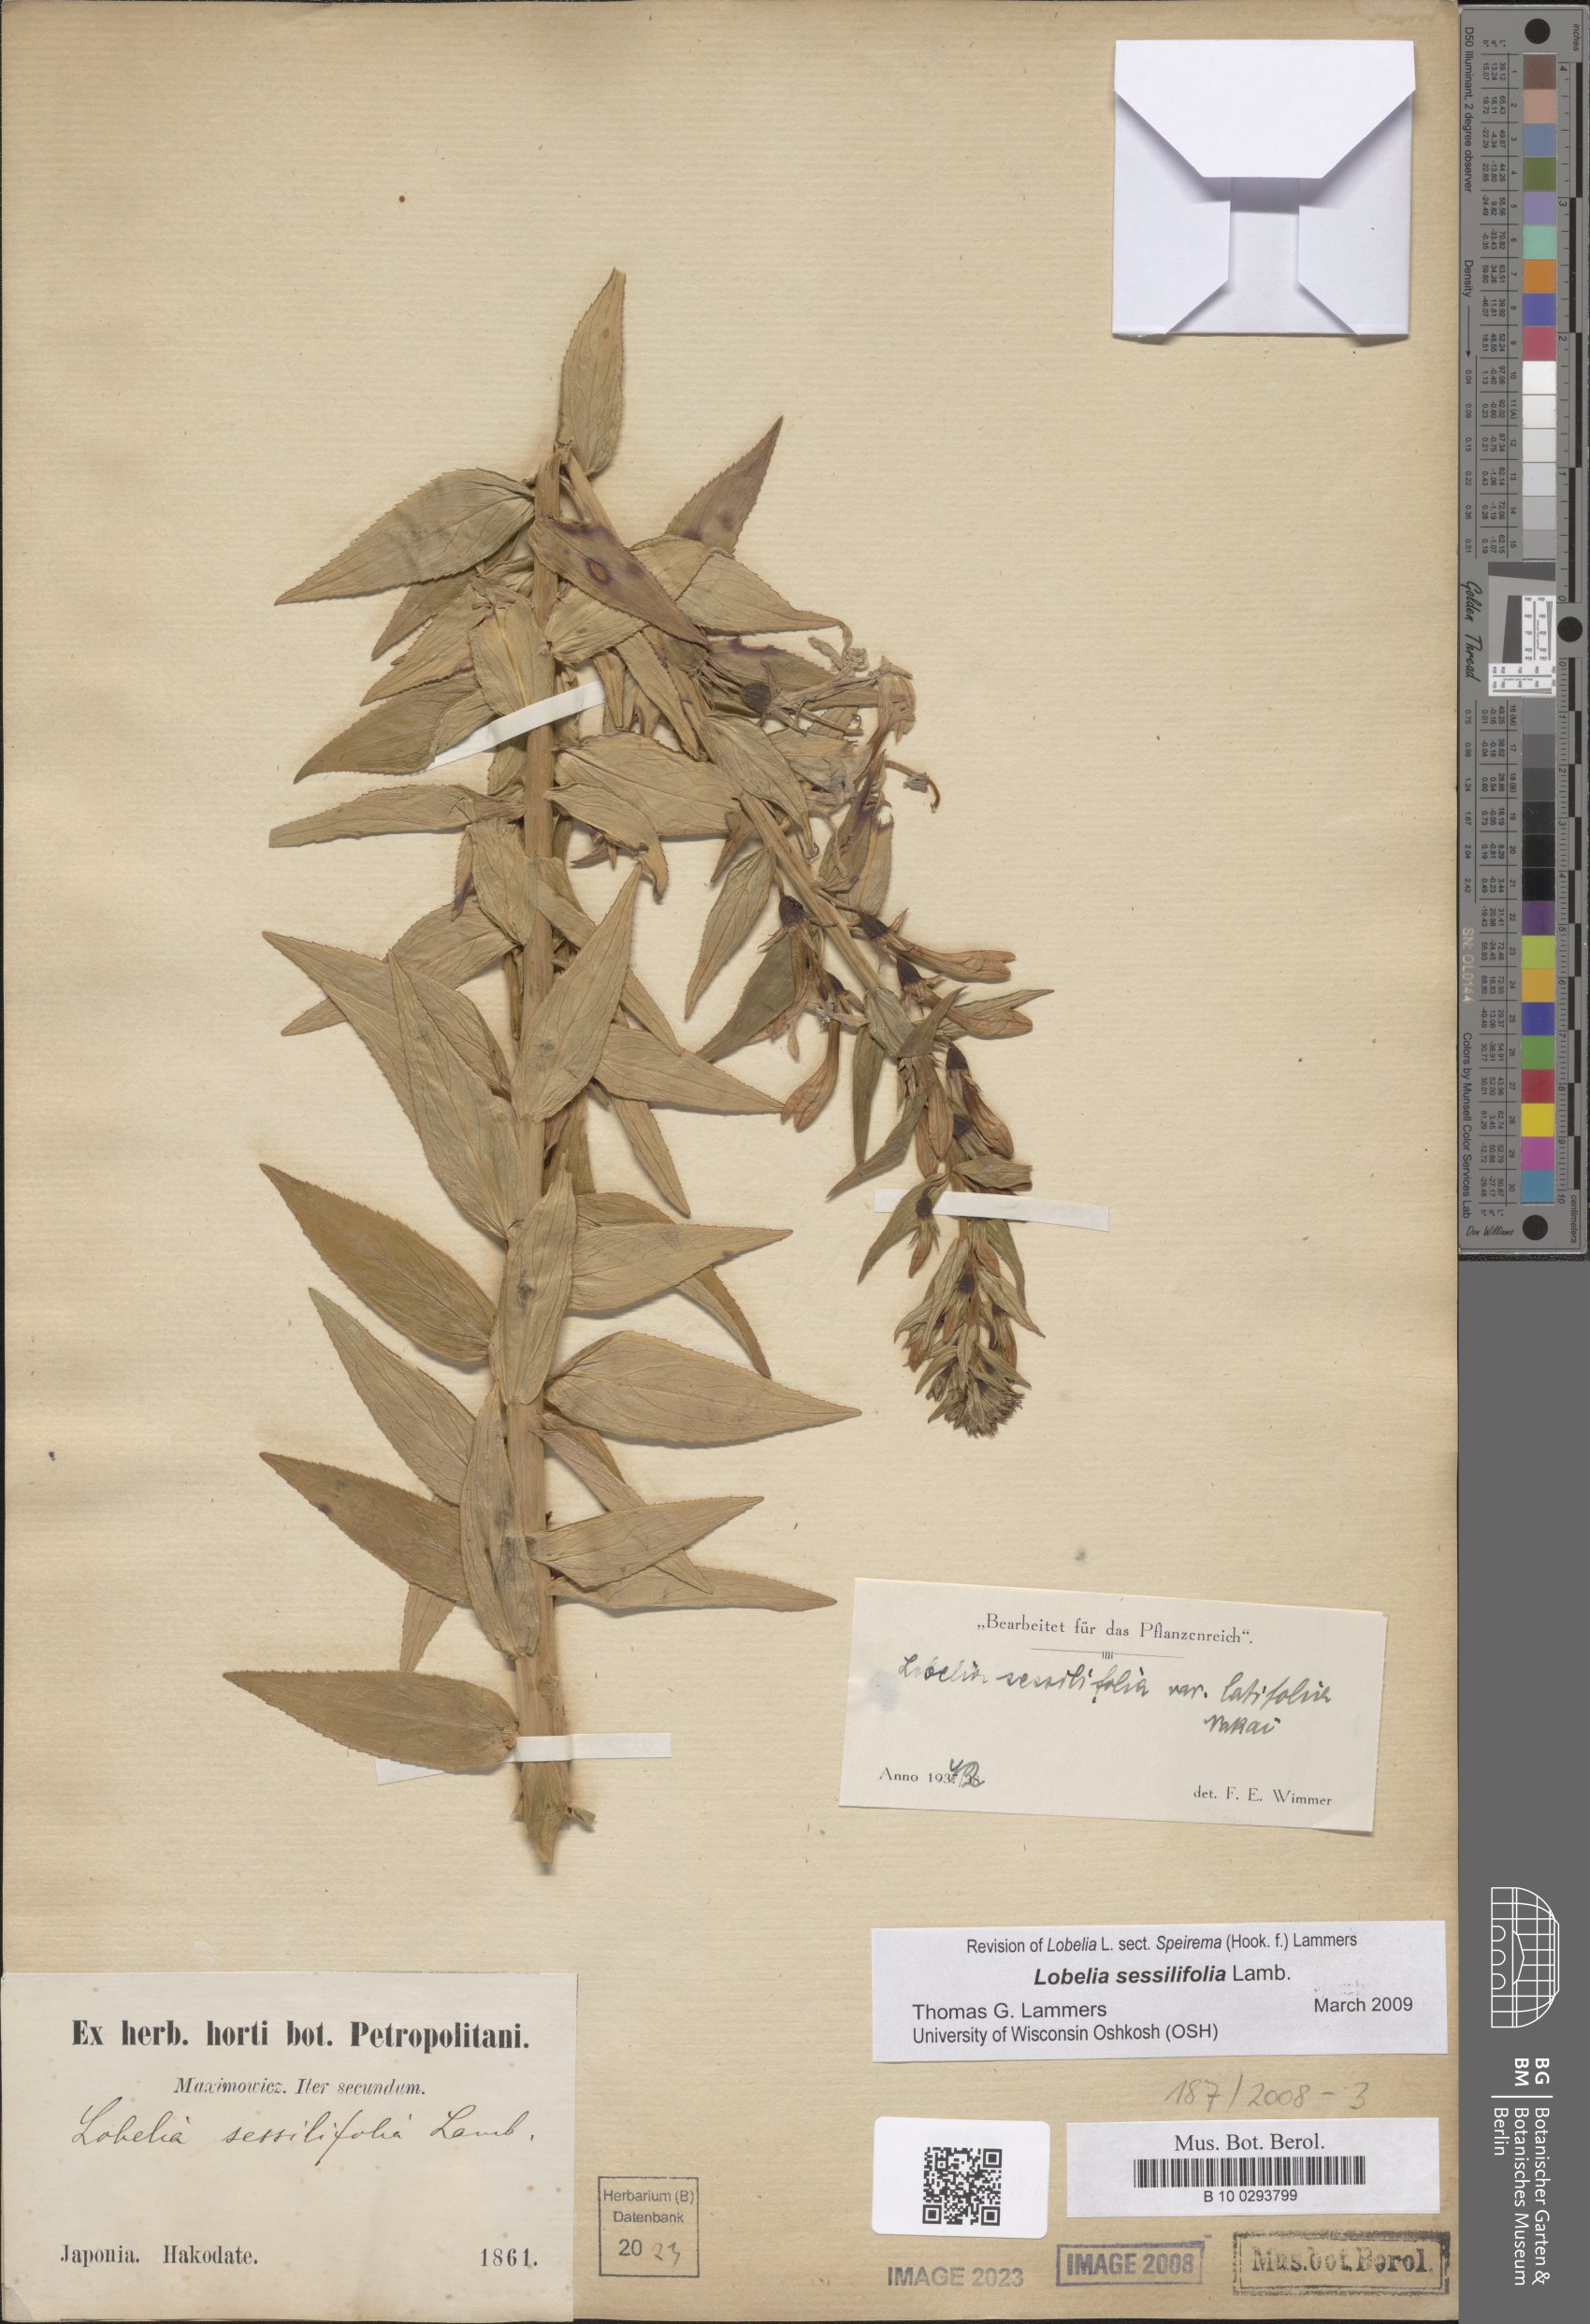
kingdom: Plantae
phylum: Tracheophyta
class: Magnoliopsida
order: Asterales
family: Campanulaceae
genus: Lobelia
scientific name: Lobelia sessilifolia
